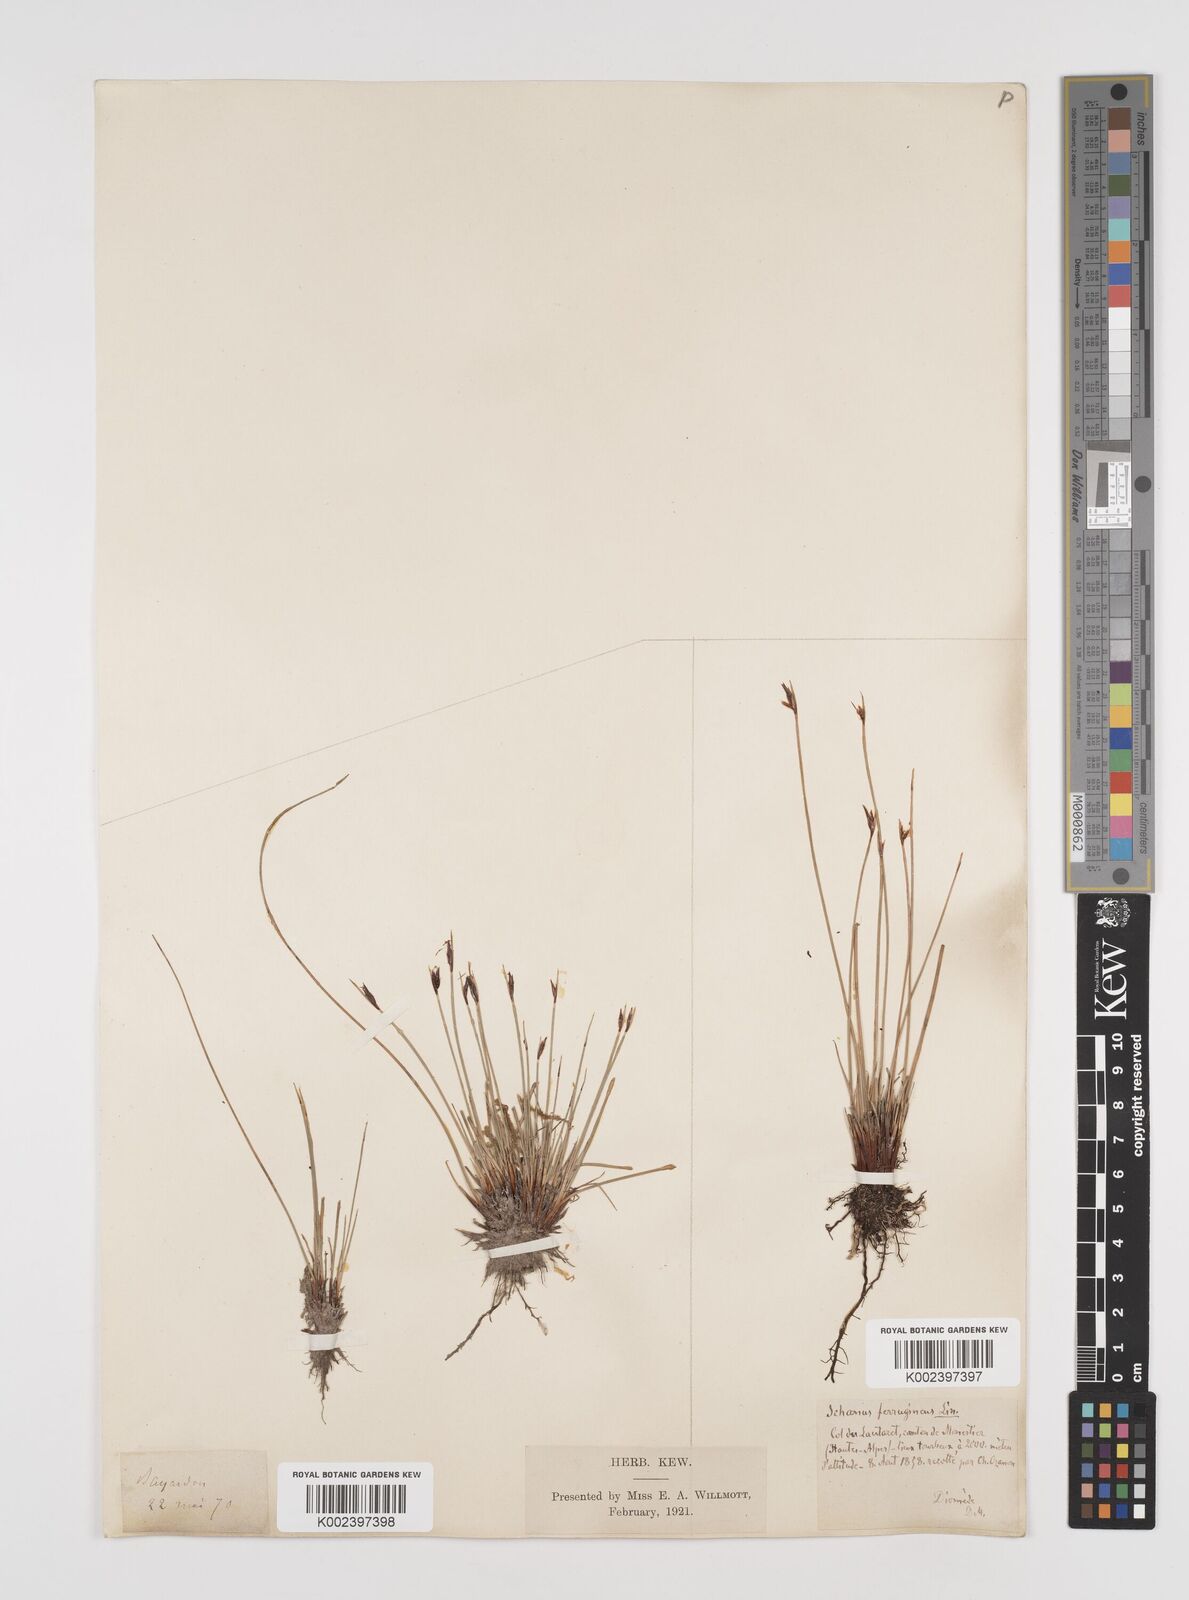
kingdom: Plantae
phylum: Tracheophyta
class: Liliopsida
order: Poales
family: Cyperaceae
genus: Schoenus
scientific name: Schoenus ferrugineus
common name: Brown bog-rush
